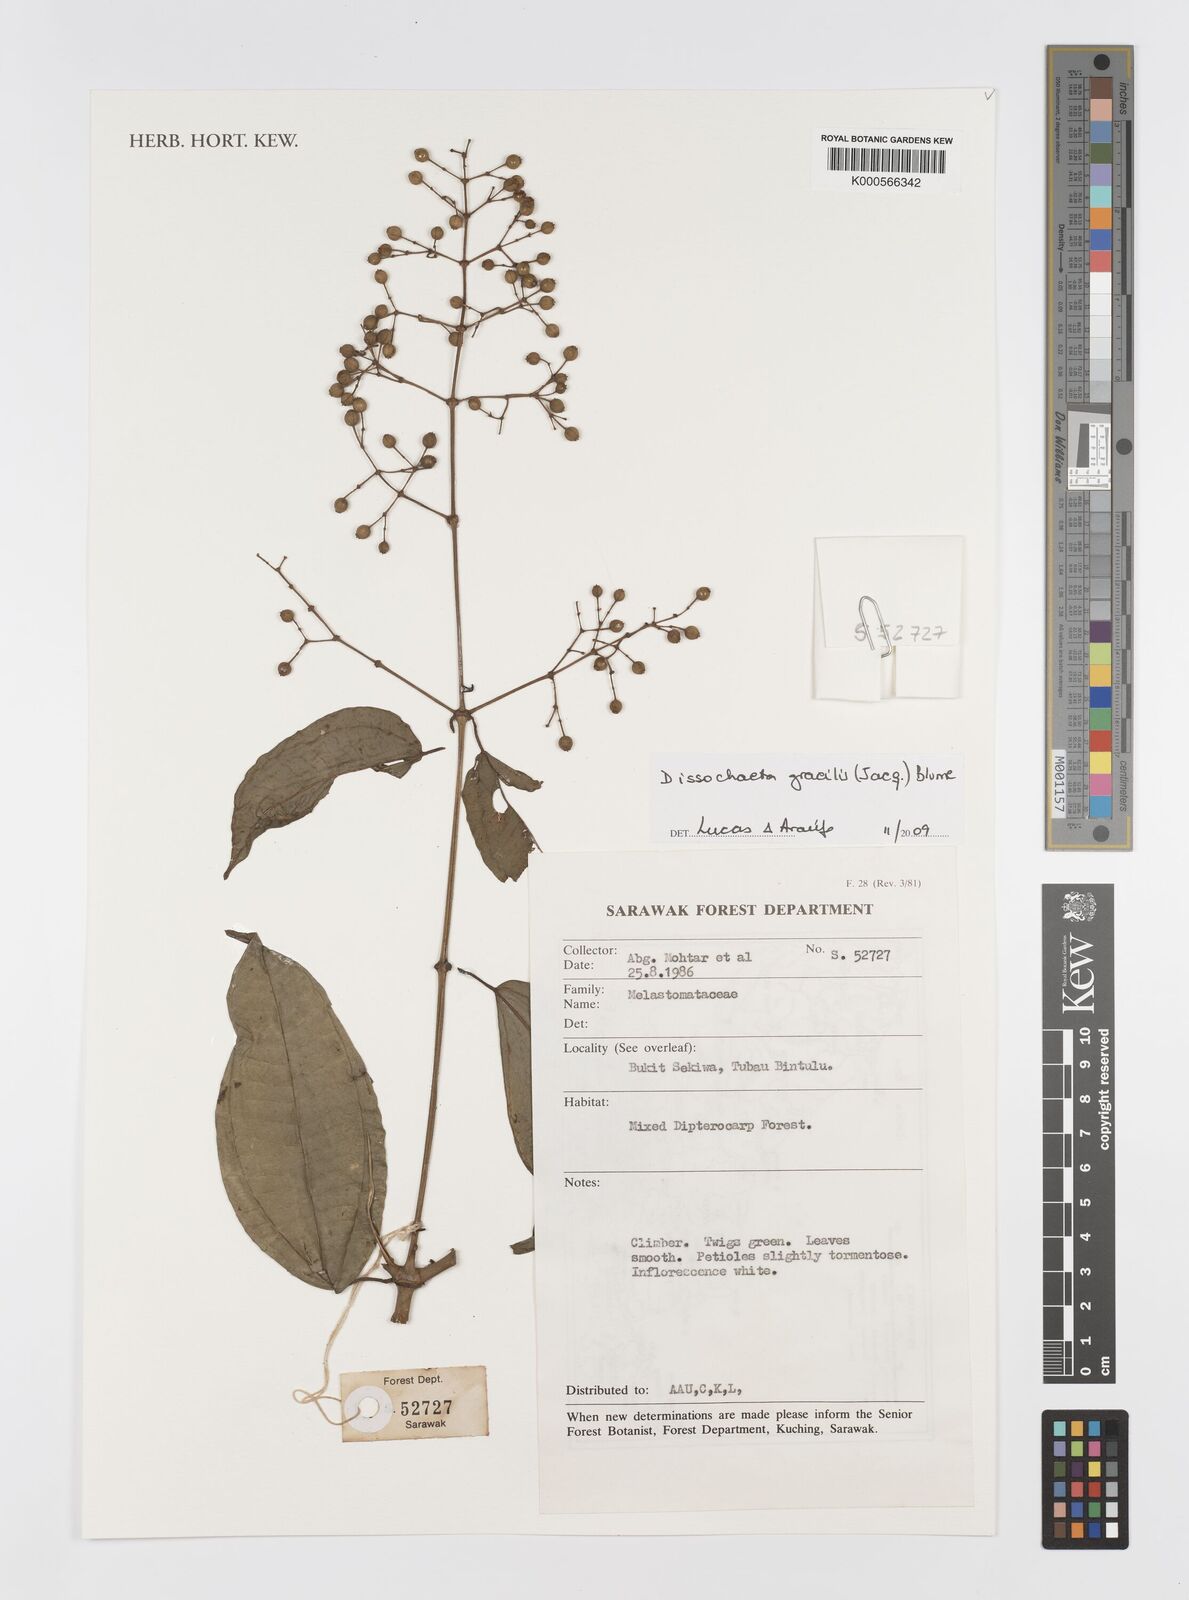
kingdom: Plantae
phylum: Tracheophyta
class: Magnoliopsida
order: Myrtales
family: Melastomataceae
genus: Dissochaeta
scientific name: Dissochaeta gracilis
